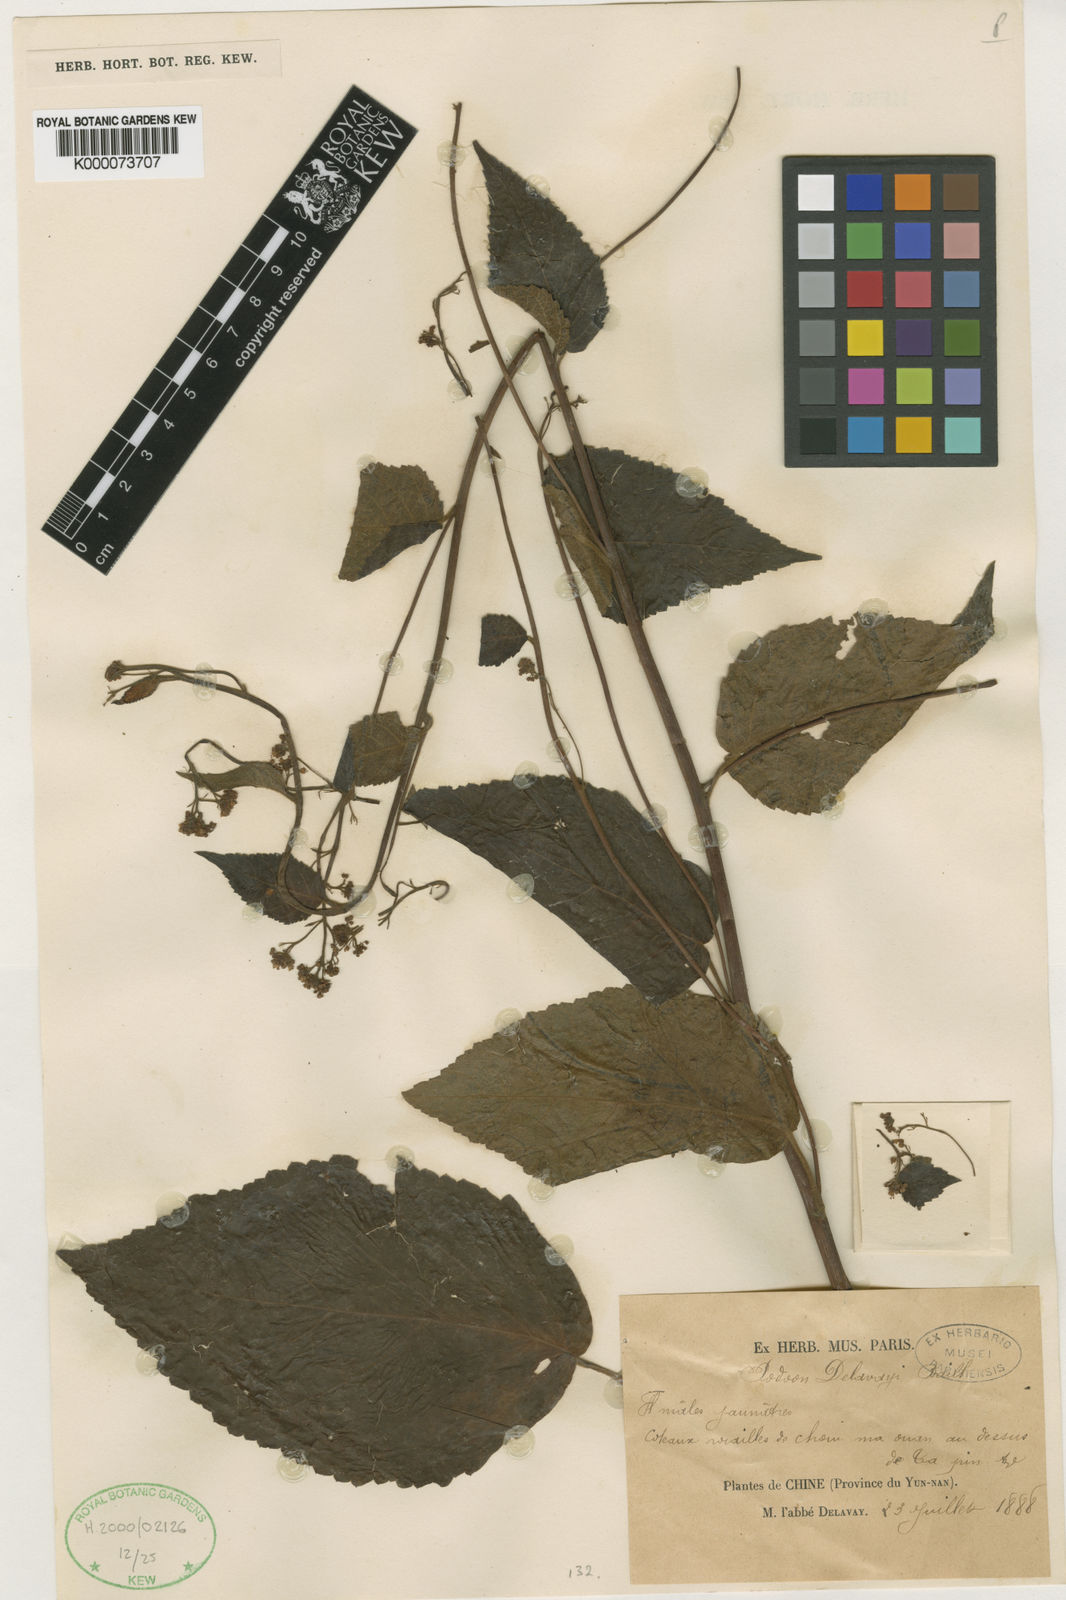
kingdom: Plantae
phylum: Tracheophyta
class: Magnoliopsida
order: Sapindales
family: Anacardiaceae
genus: Dobinea
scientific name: Dobinea delavayi
